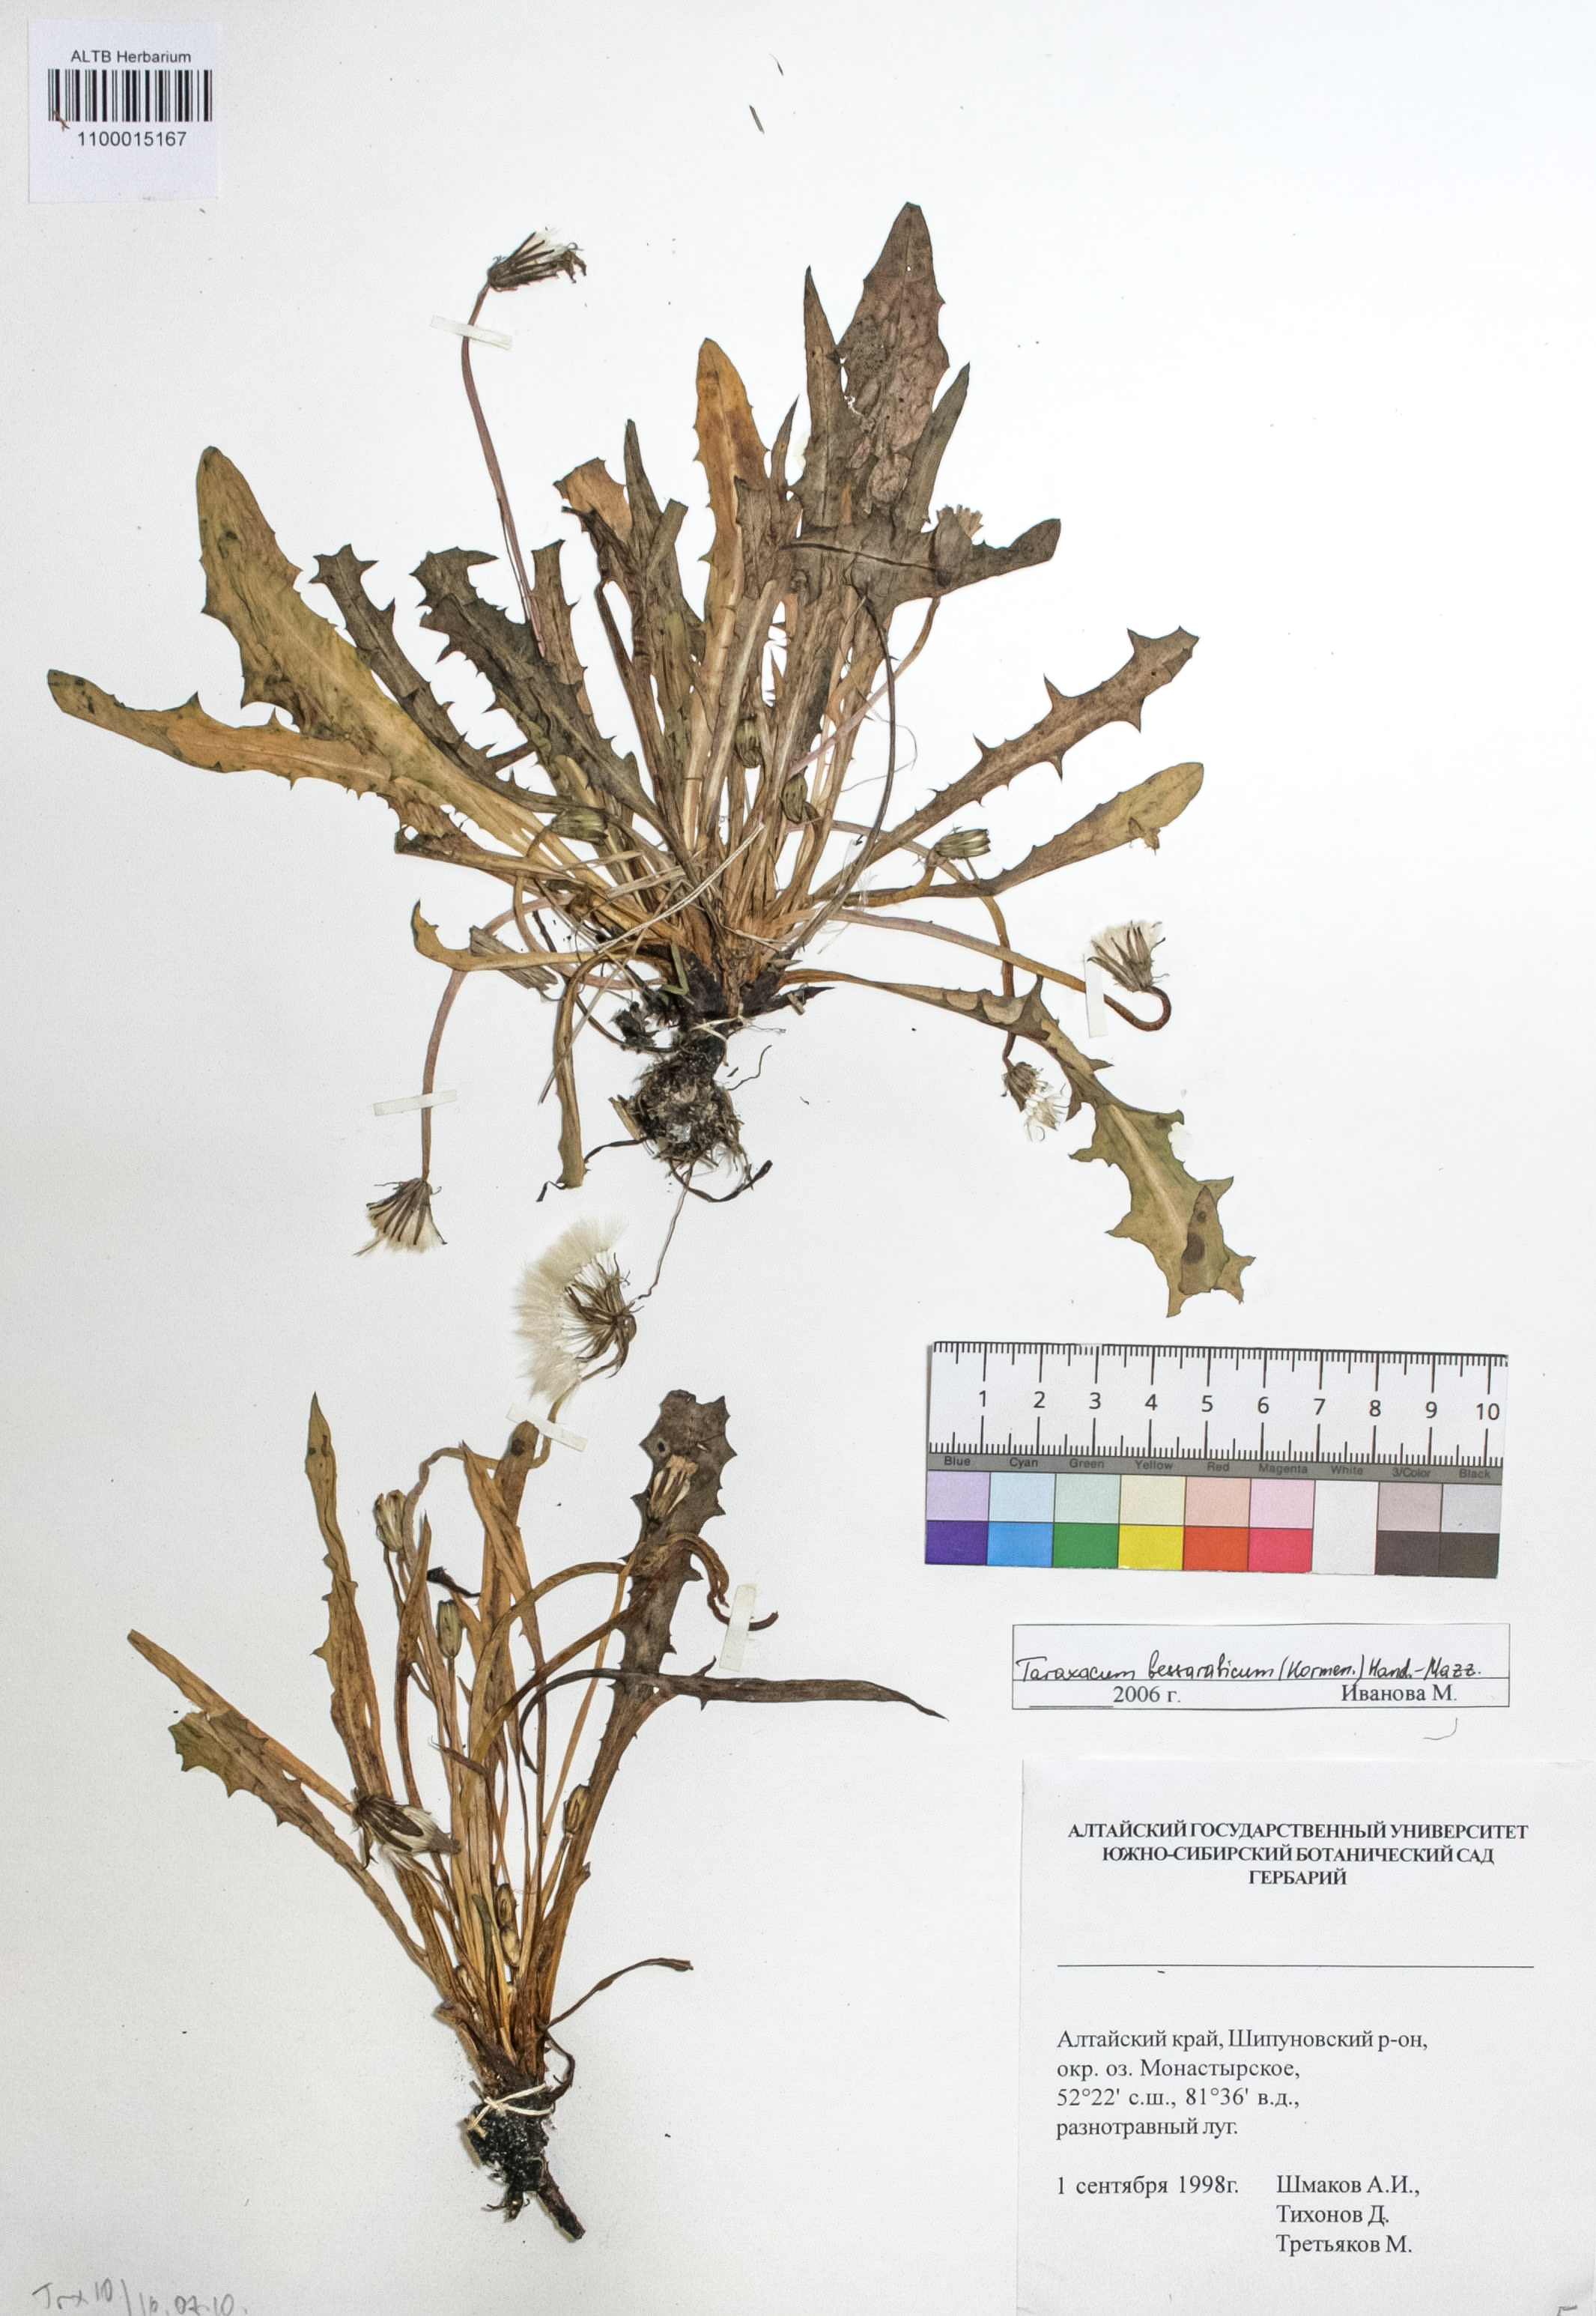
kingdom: Plantae
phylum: Tracheophyta
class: Magnoliopsida
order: Asterales
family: Asteraceae
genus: Taraxacum
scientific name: Taraxacum bessarabicum
